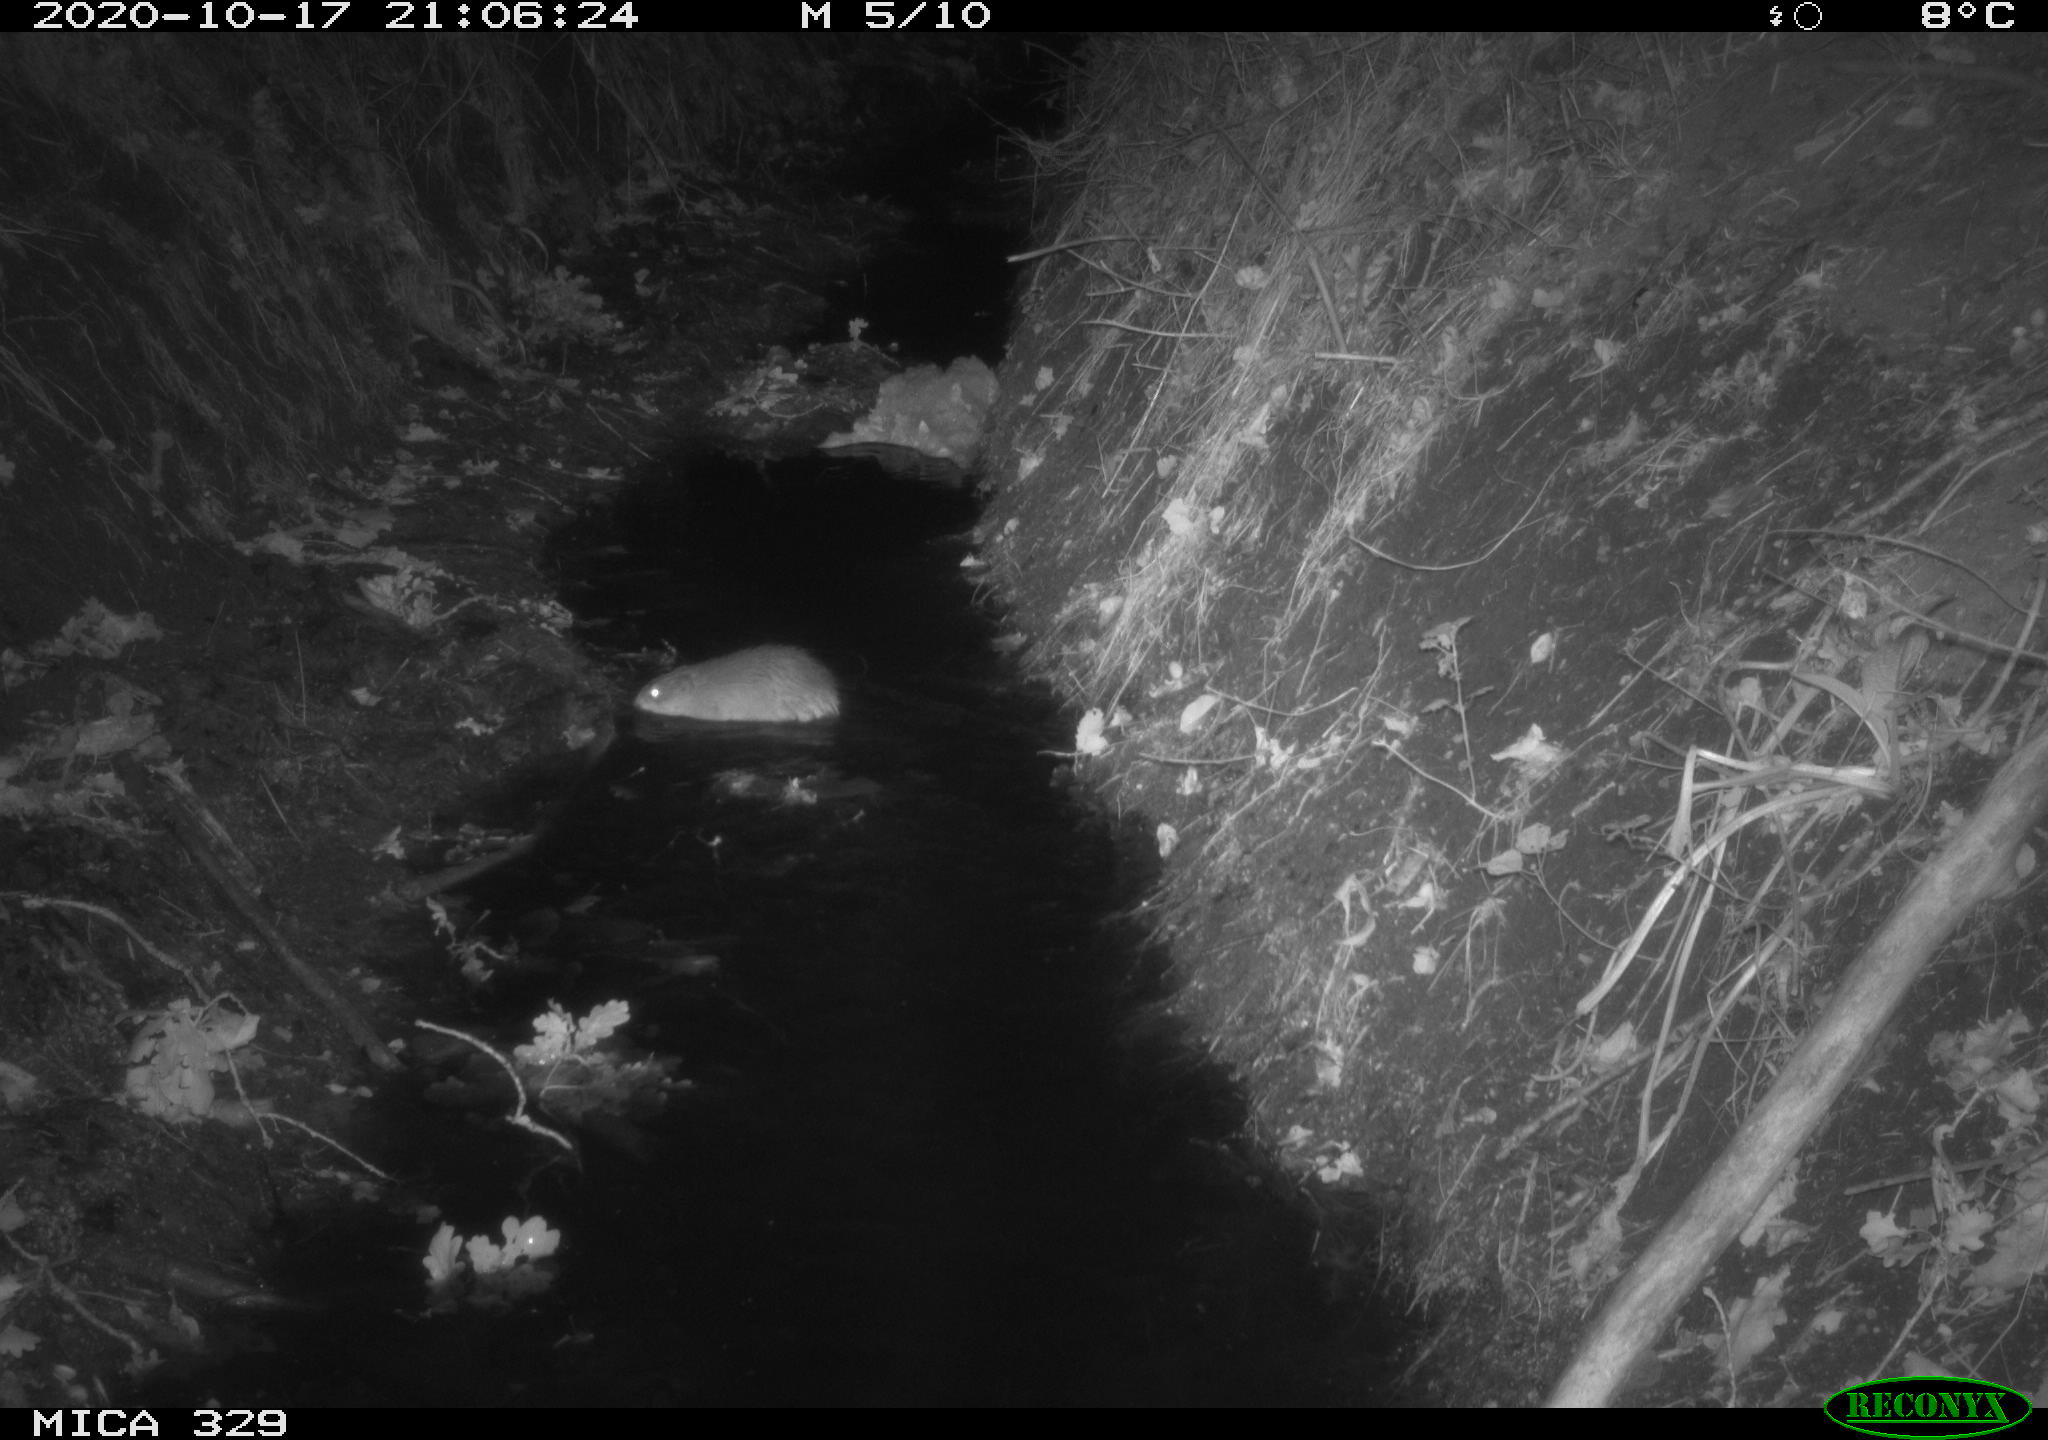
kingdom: Animalia
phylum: Chordata
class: Mammalia
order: Rodentia
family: Cricetidae
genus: Ondatra
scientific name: Ondatra zibethicus
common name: Muskrat
